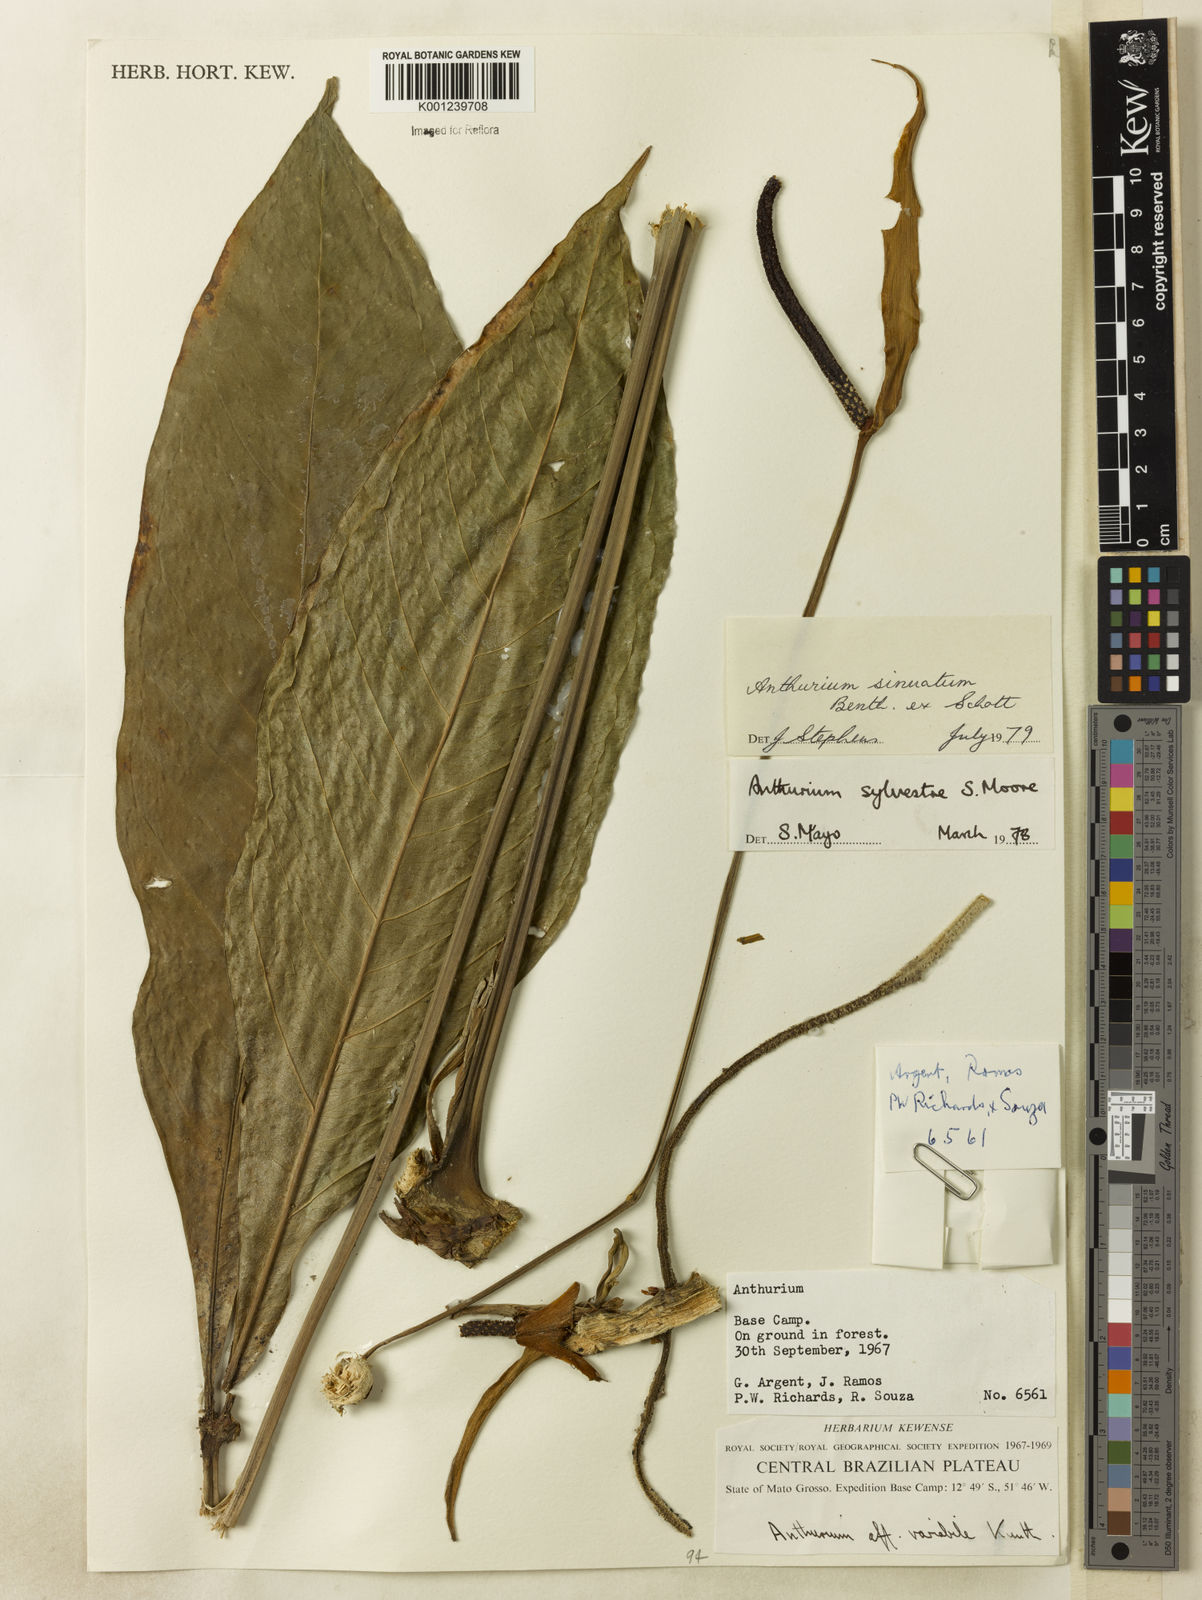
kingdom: Plantae
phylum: Tracheophyta
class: Liliopsida
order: Alismatales
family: Araceae
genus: Anthurium
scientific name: Anthurium sinuatum
